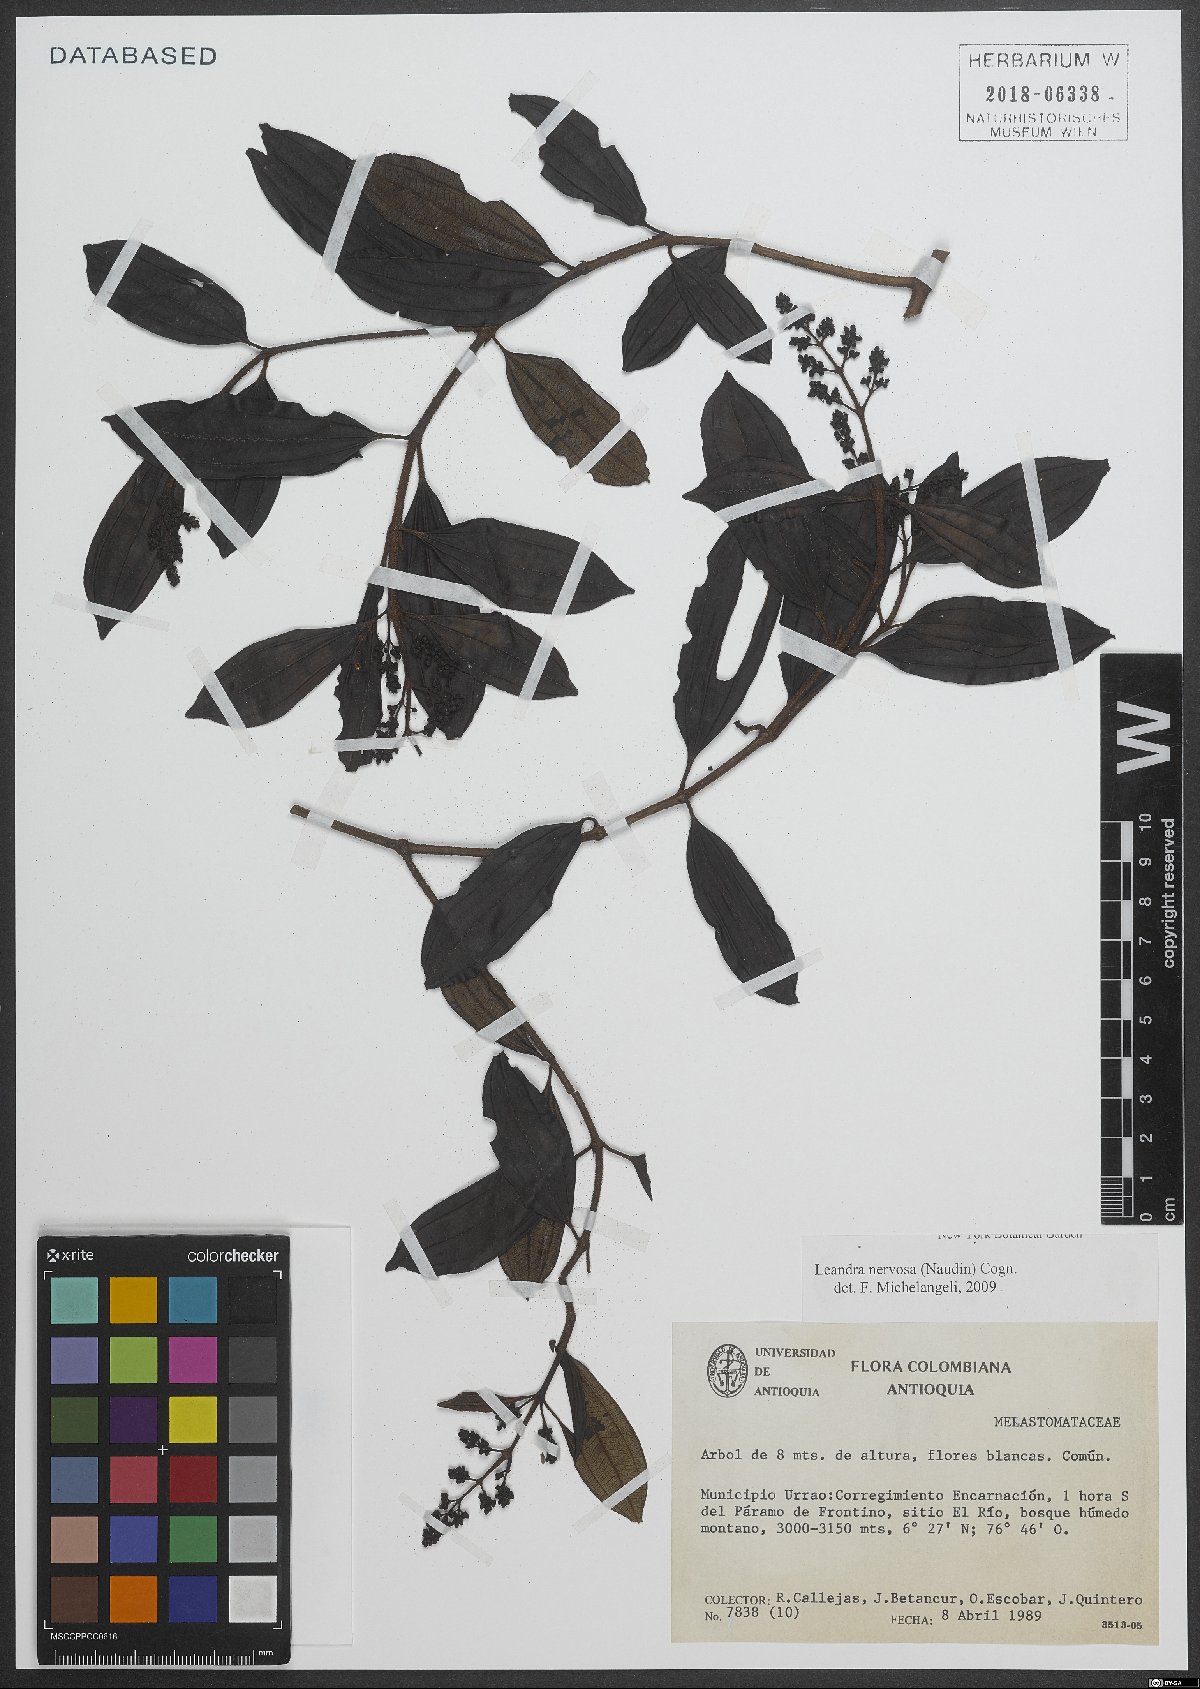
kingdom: Plantae
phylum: Tracheophyta
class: Magnoliopsida
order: Myrtales
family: Melastomataceae
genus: Miconia
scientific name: Miconia nervosissima
